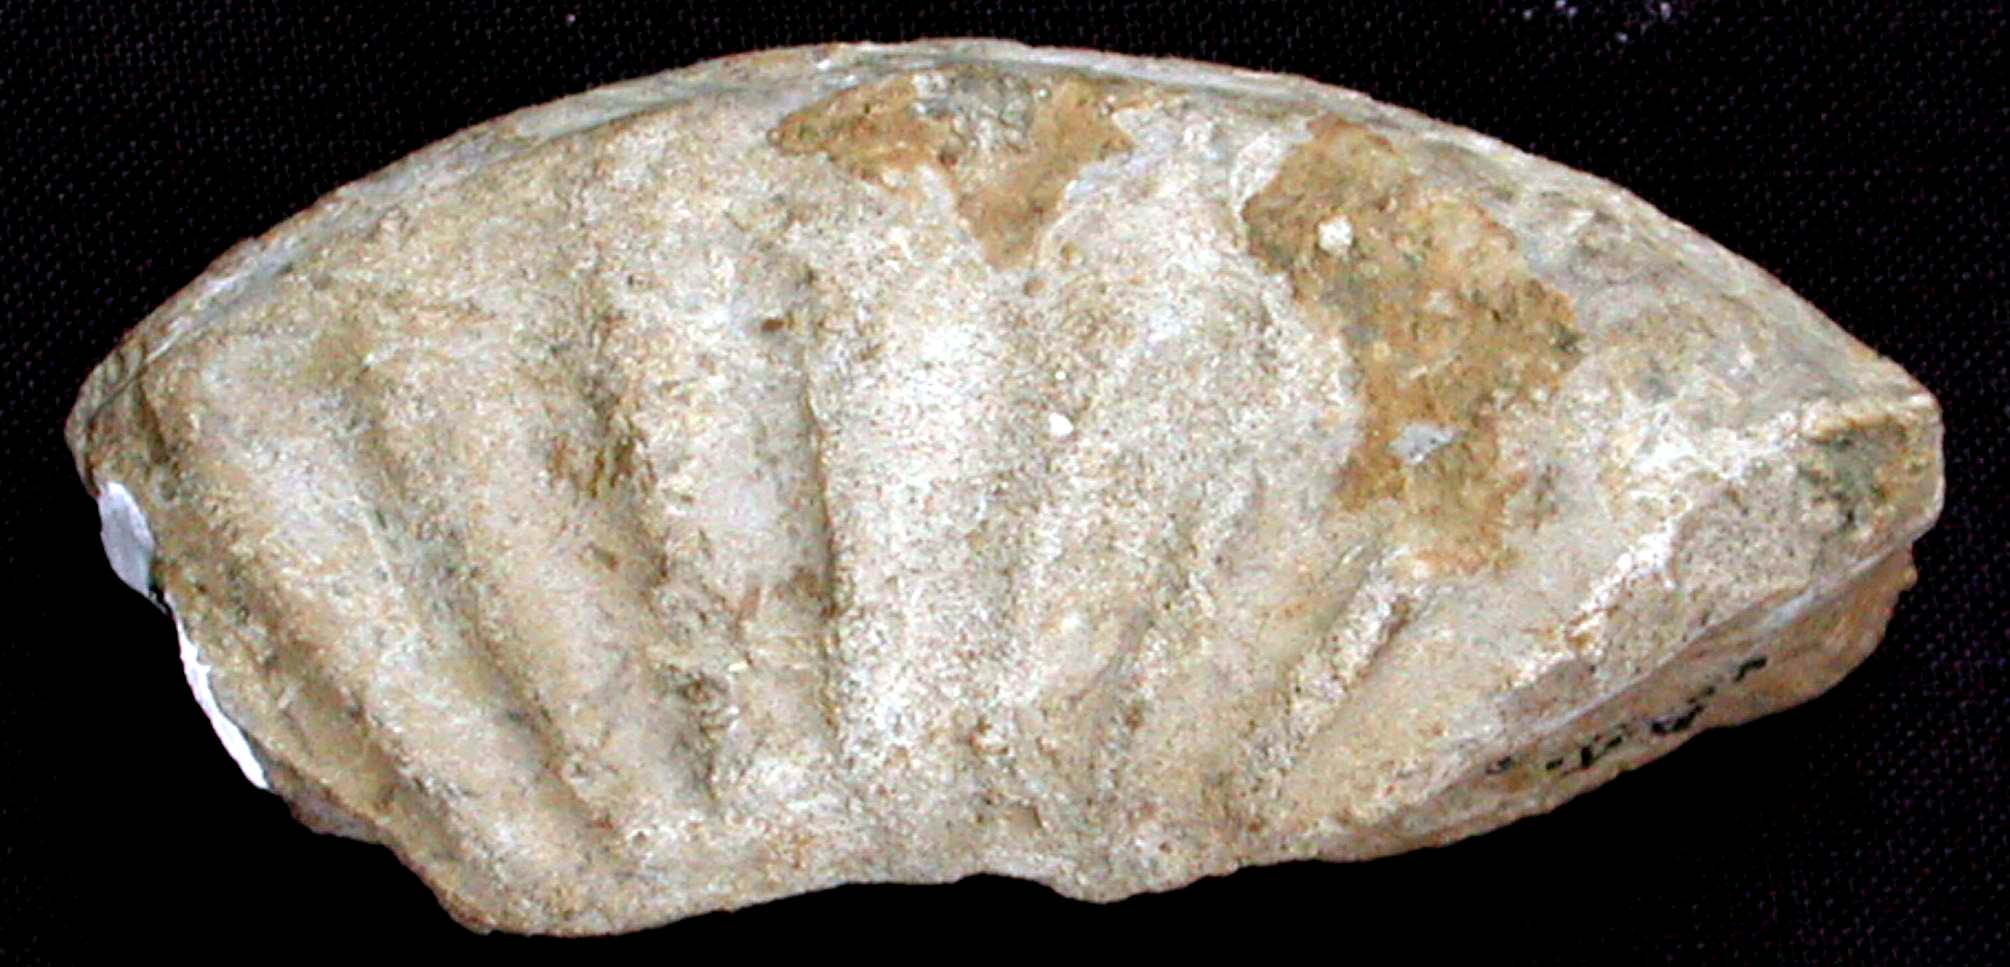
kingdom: Animalia
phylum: Mollusca
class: Cephalopoda
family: Asteroceratidae
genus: Asteroceras
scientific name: Asteroceras stellare
